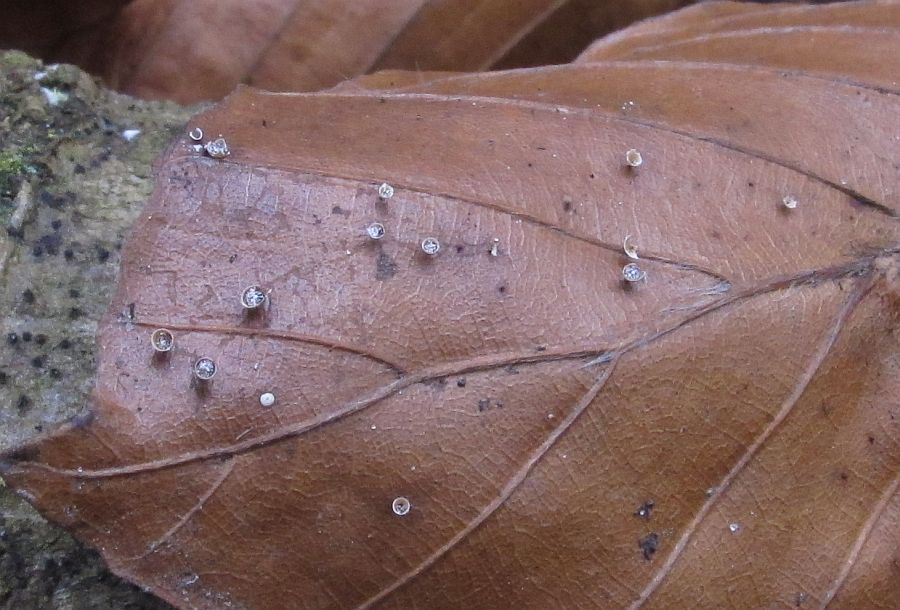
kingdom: Protozoa
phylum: Mycetozoa
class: Myxomycetes
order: Physarales
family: Physaraceae
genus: Craterium
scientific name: Craterium minutum
